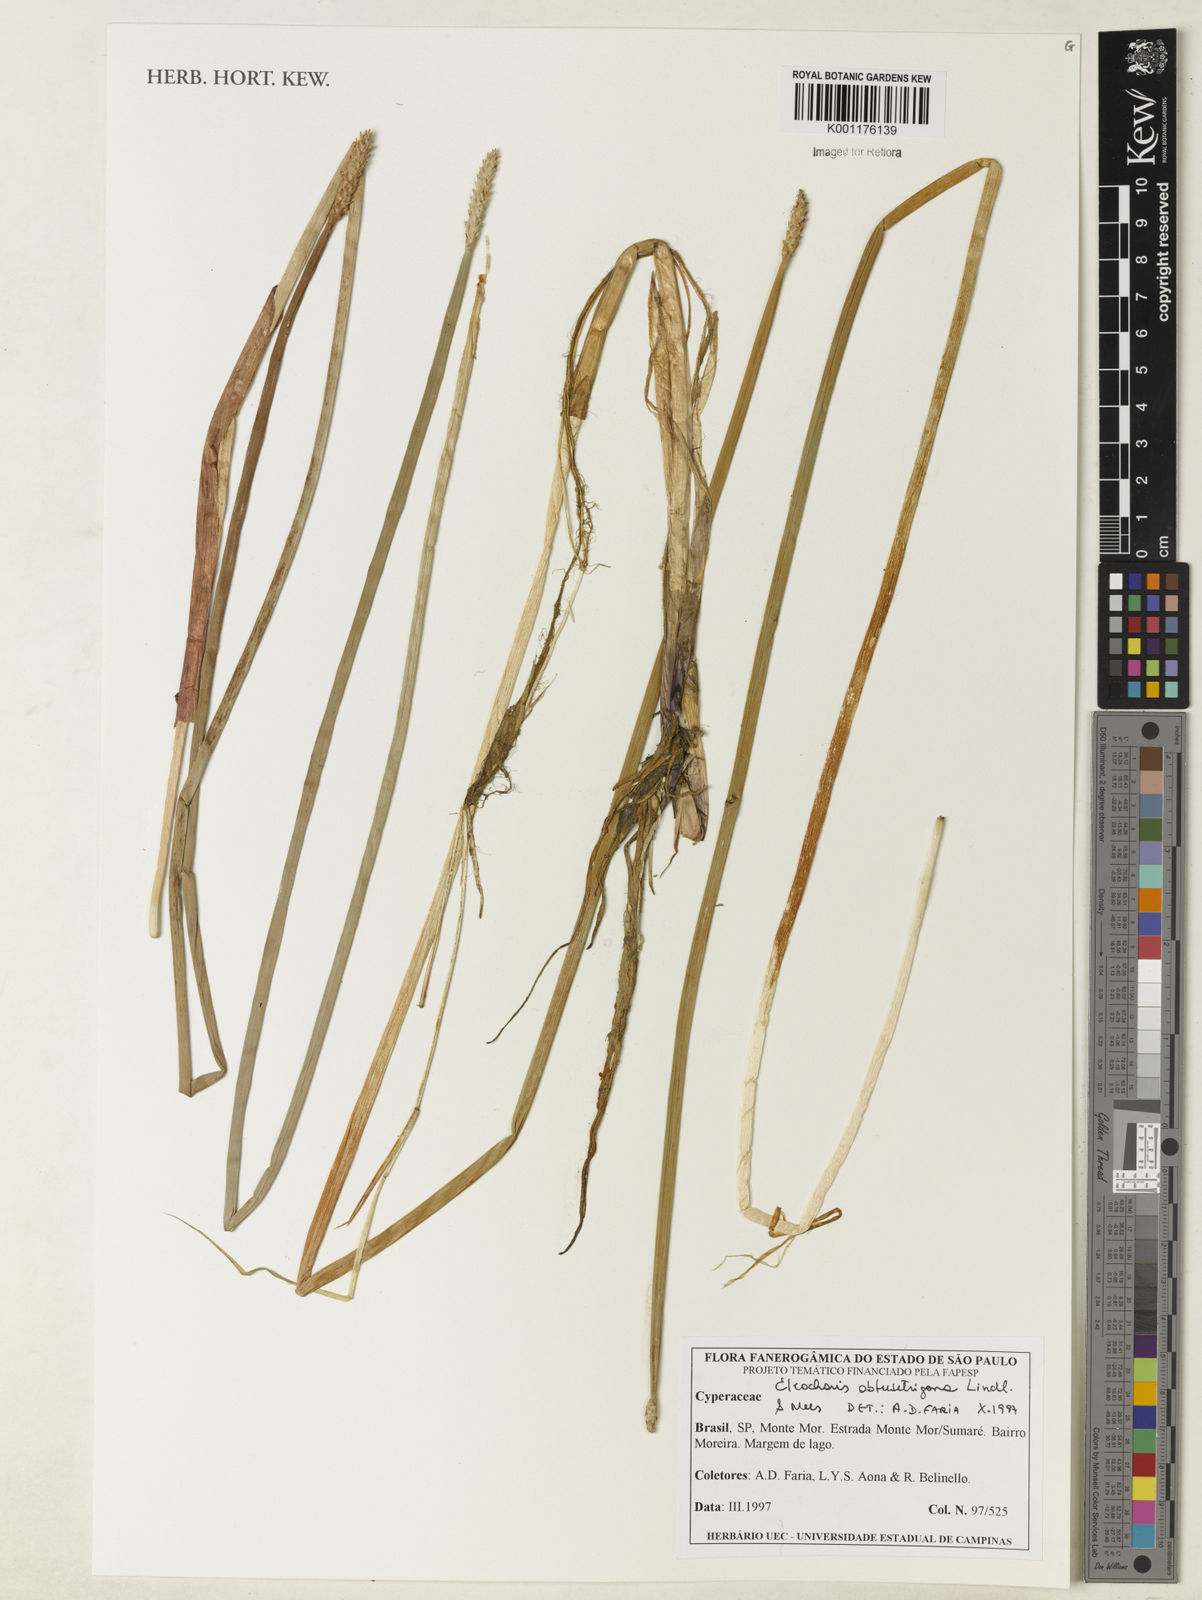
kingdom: Plantae
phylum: Tracheophyta
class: Liliopsida
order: Poales
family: Cyperaceae
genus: Eleocharis
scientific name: Eleocharis acutangula
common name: Acute spikerush
